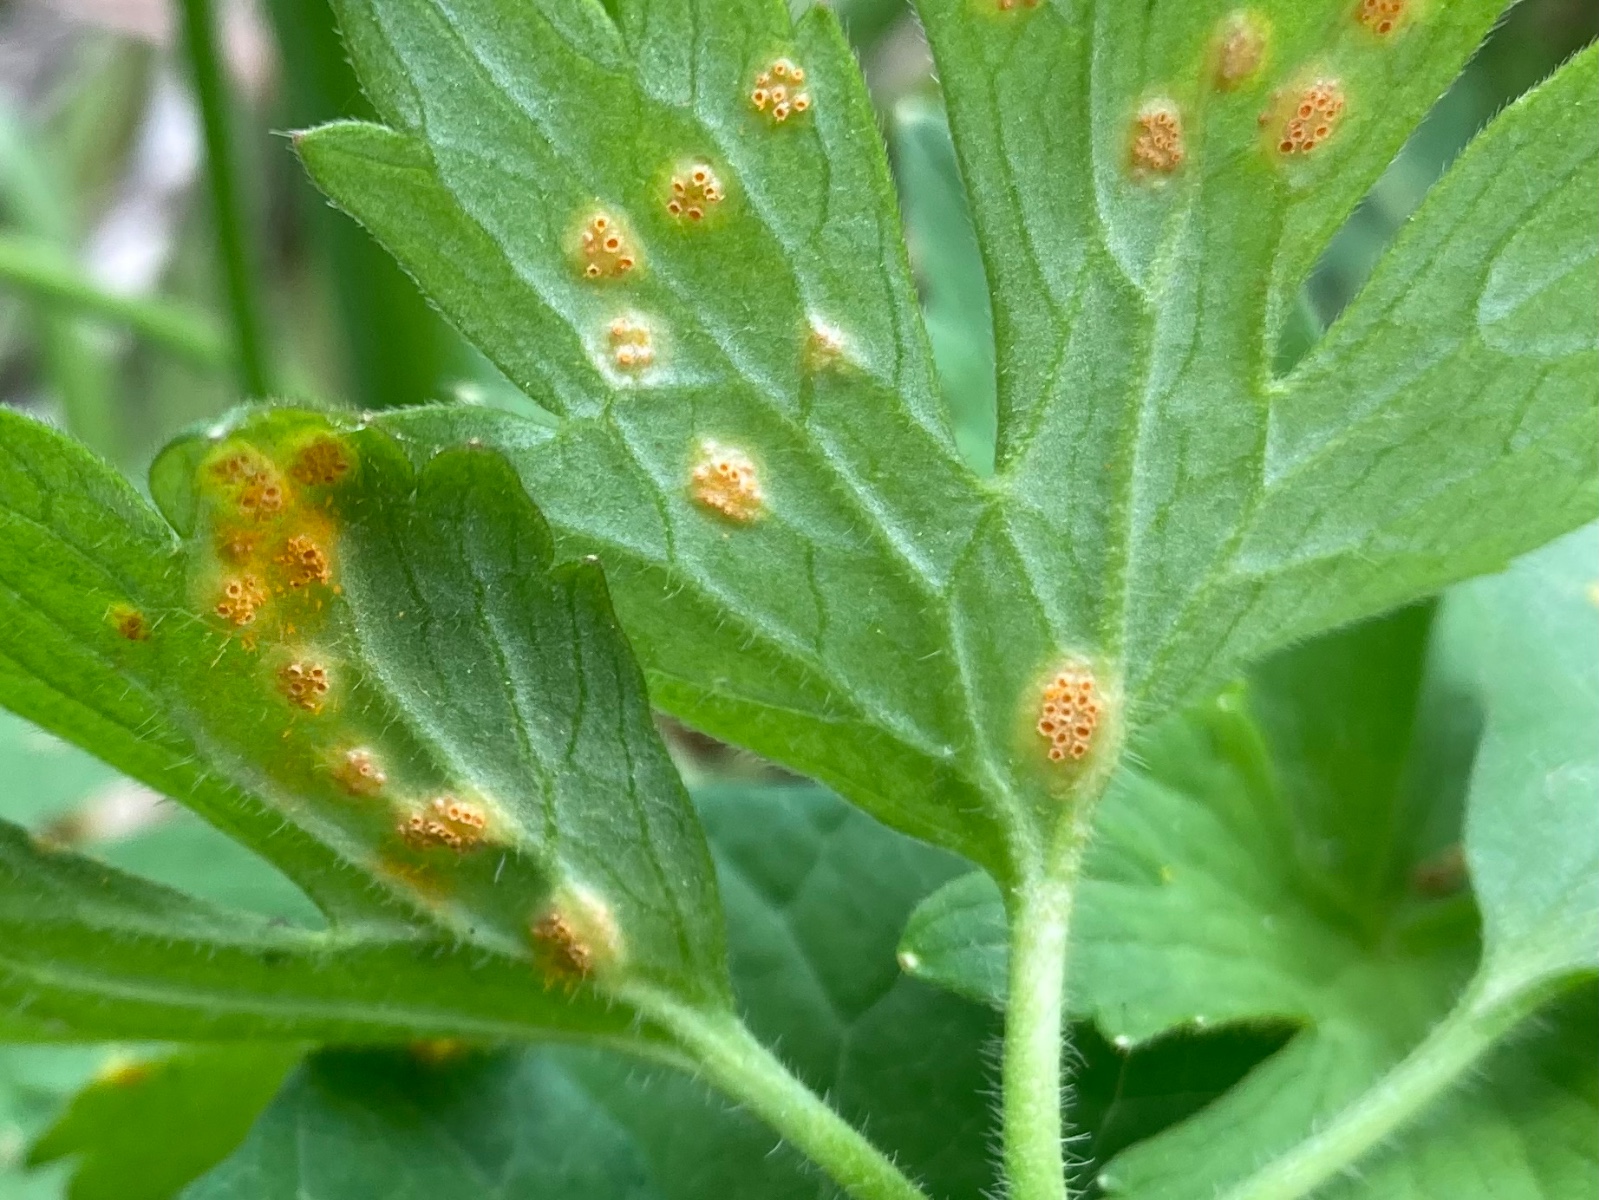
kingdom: Fungi
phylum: Basidiomycota
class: Pucciniomycetes
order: Pucciniales
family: Pucciniaceae
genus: Puccinia
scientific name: Puccinia recondita
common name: Brown rust of wheat
